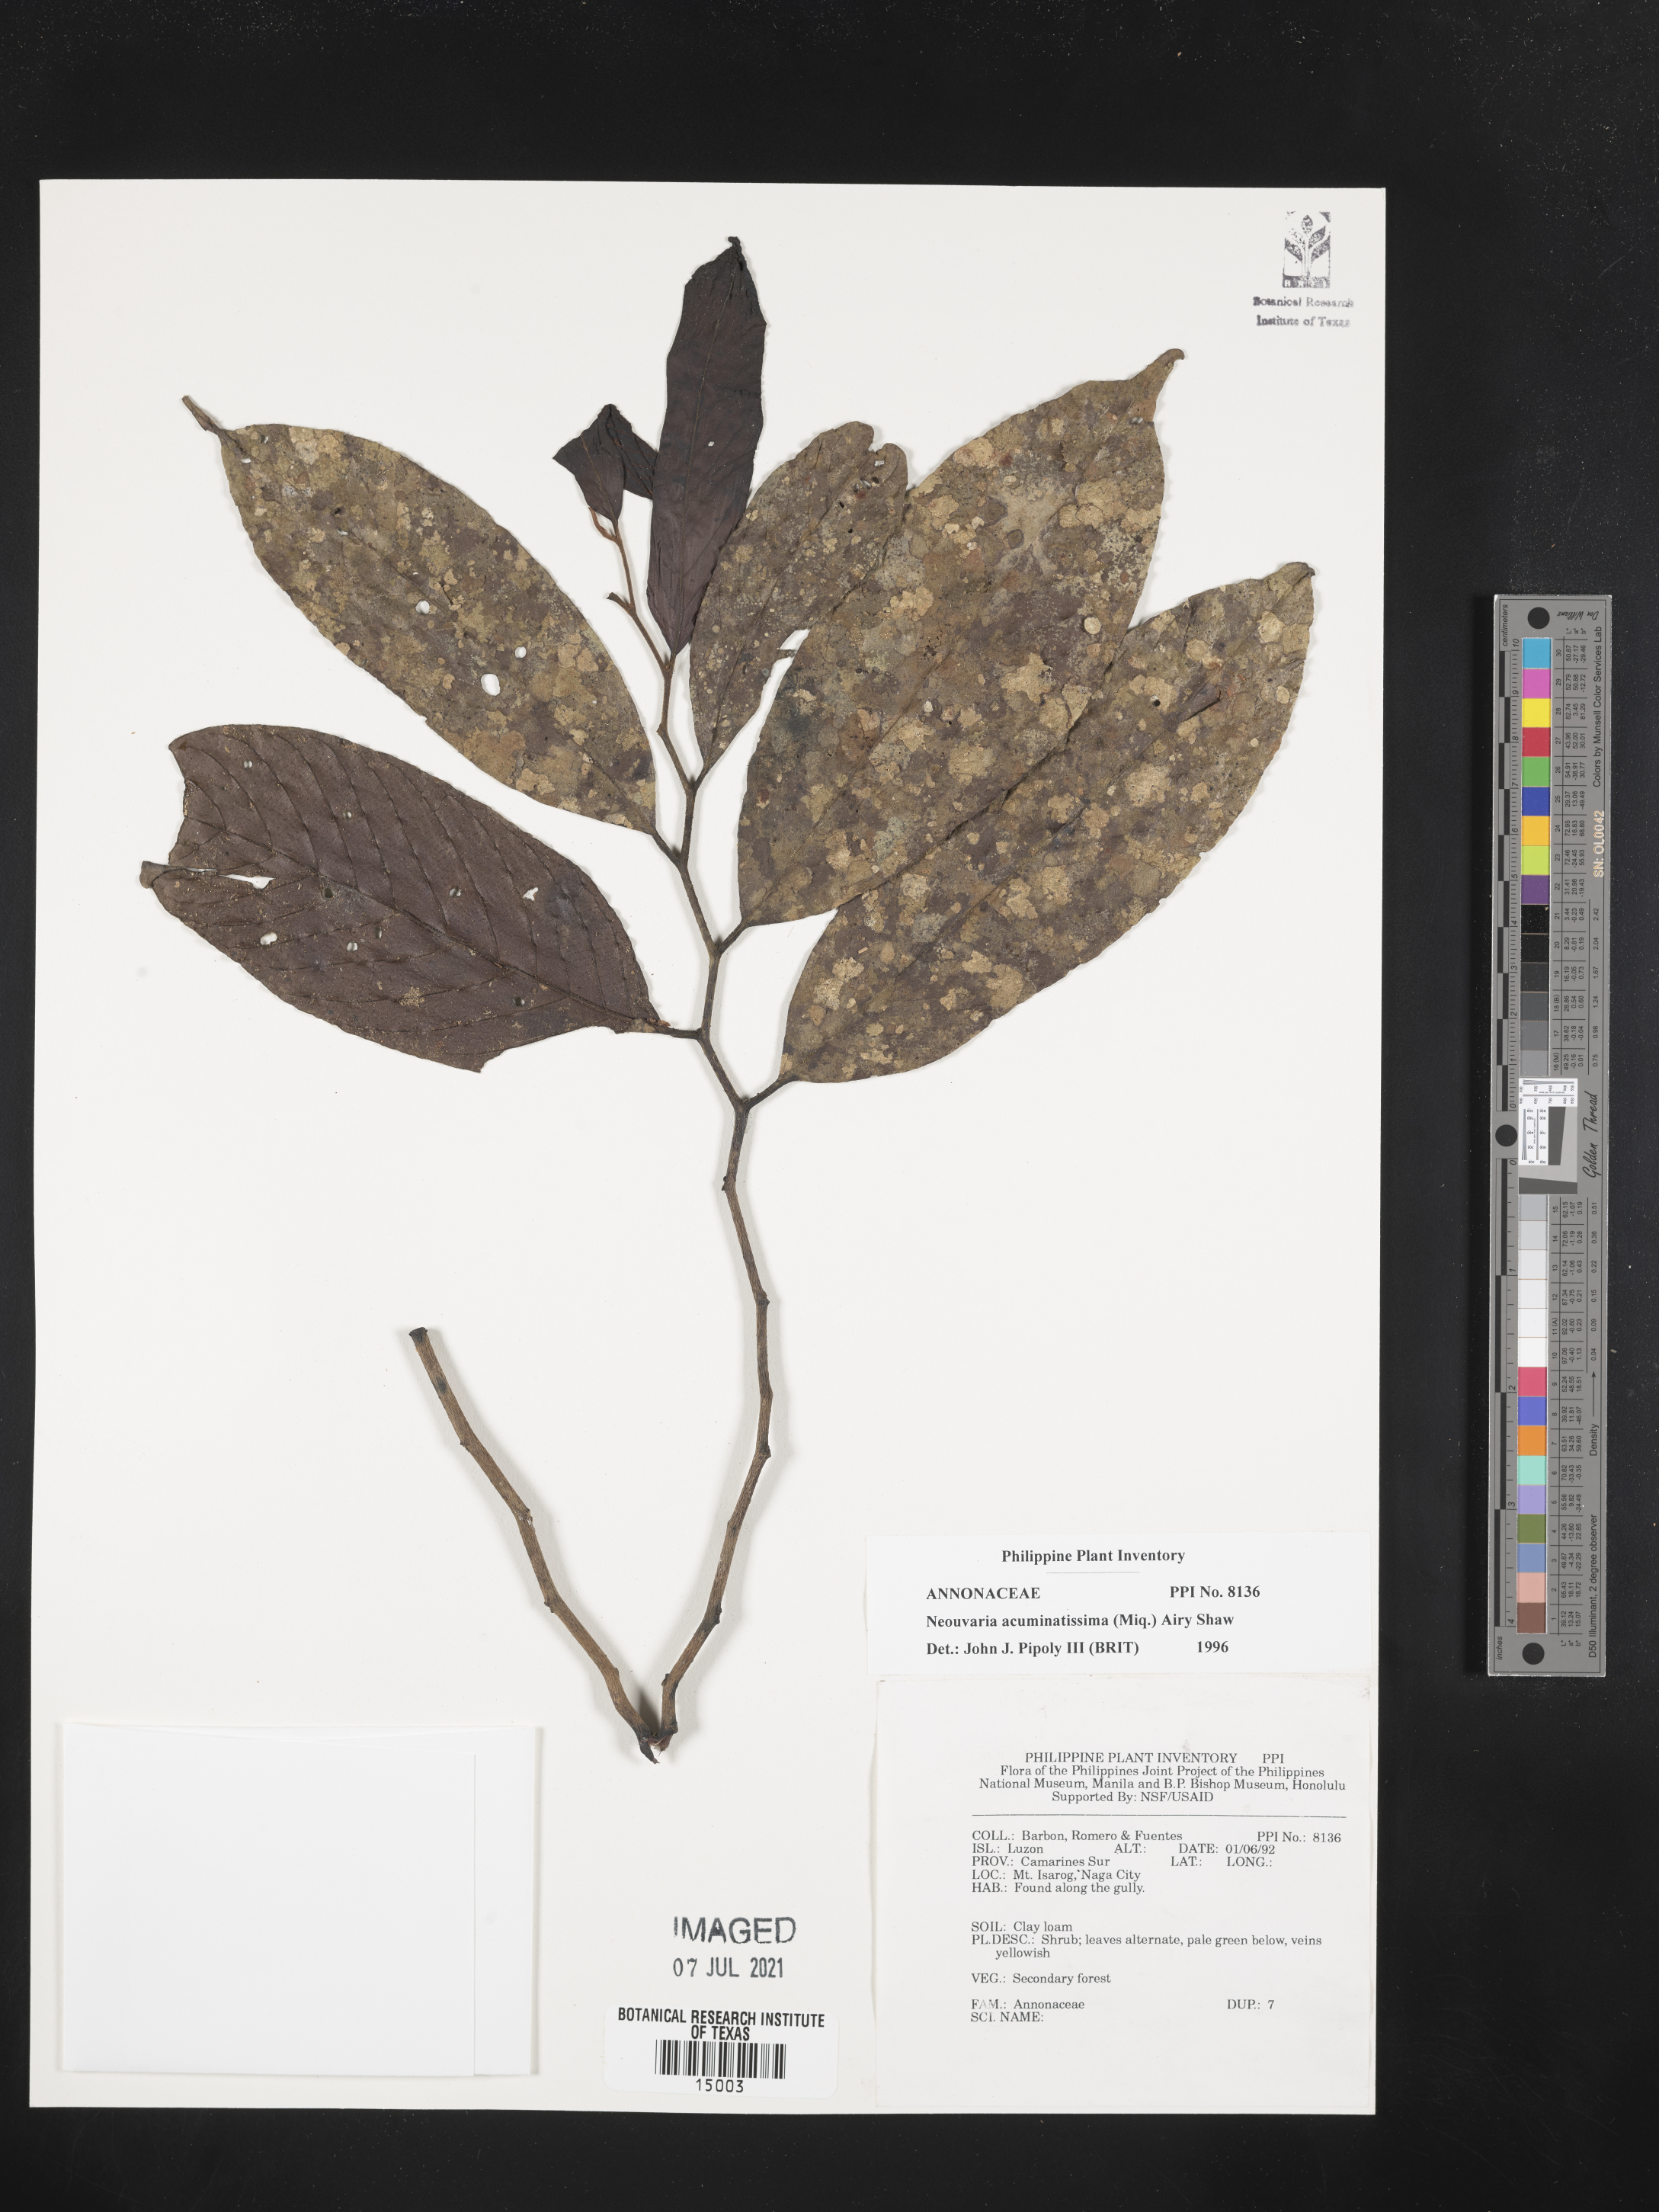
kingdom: Plantae
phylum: Tracheophyta
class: Magnoliopsida
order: Magnoliales
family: Annonaceae
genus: Neouvaria
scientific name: Neouvaria acuminatissima
